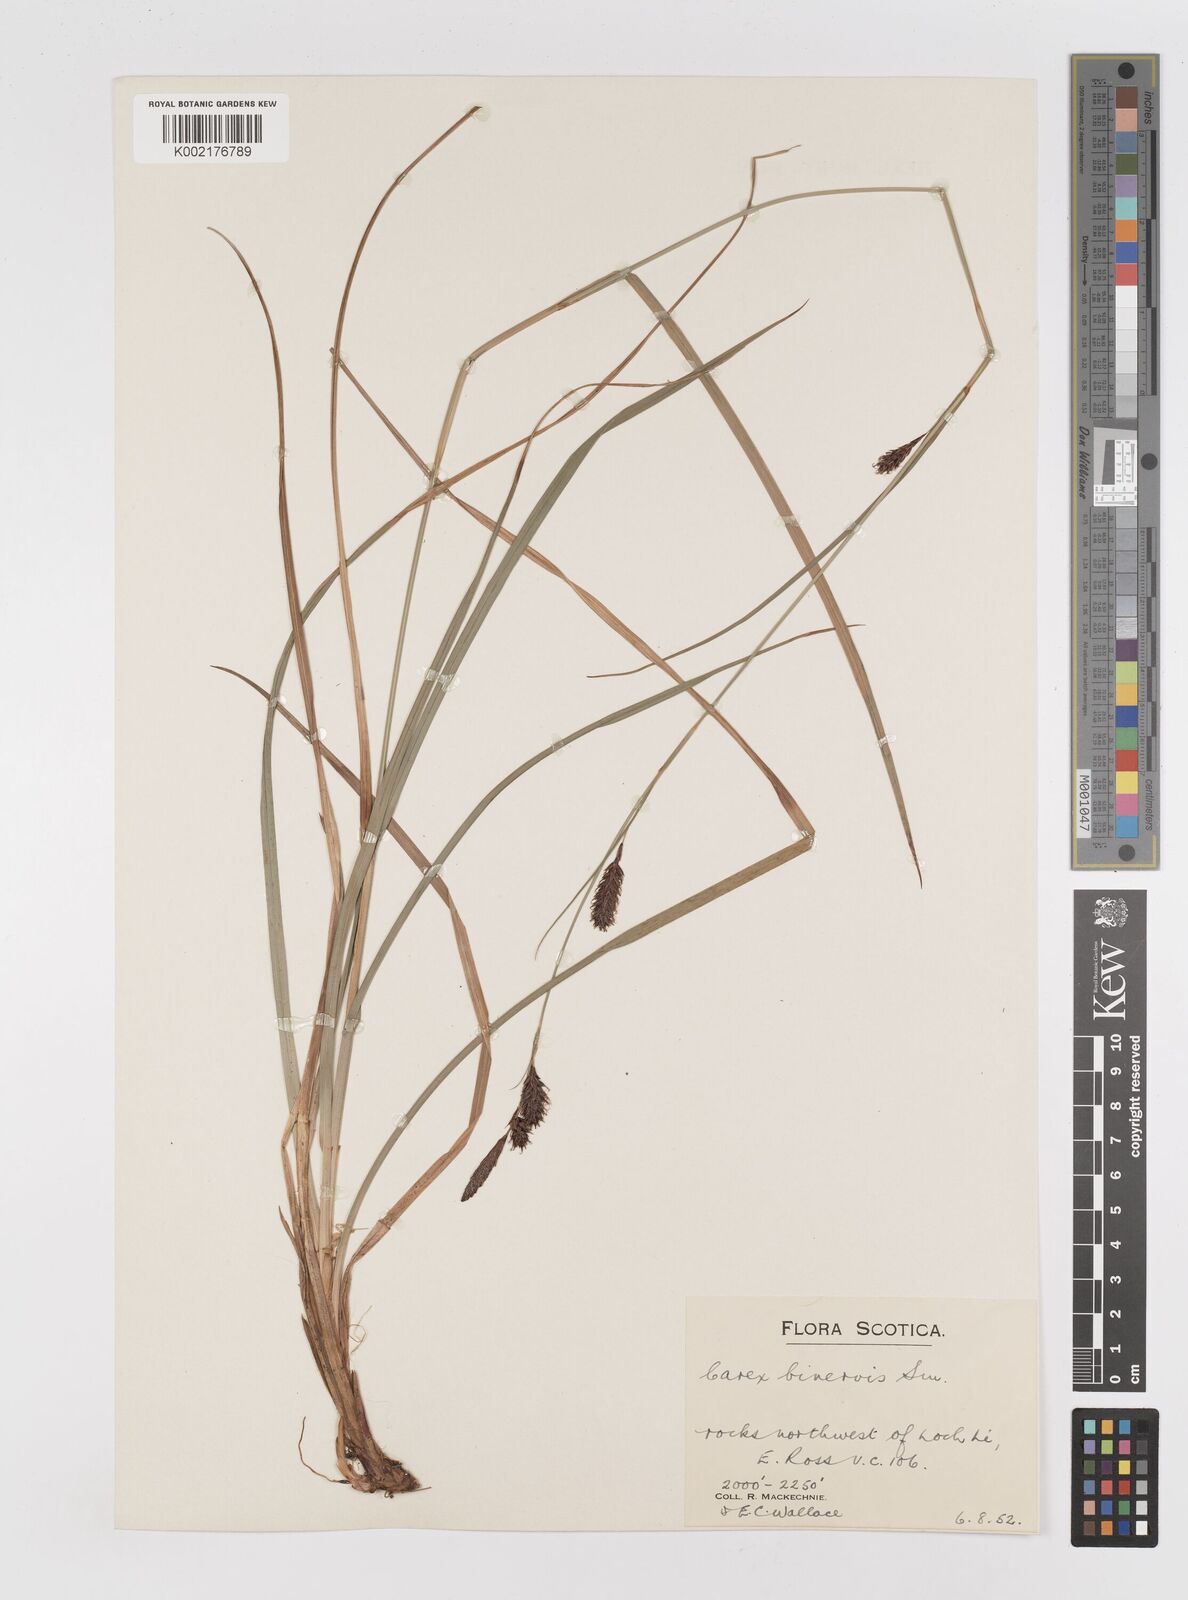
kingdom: Plantae
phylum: Tracheophyta
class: Liliopsida
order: Poales
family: Cyperaceae
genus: Carex
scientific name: Carex binervis
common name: Green-ribbed sedge
